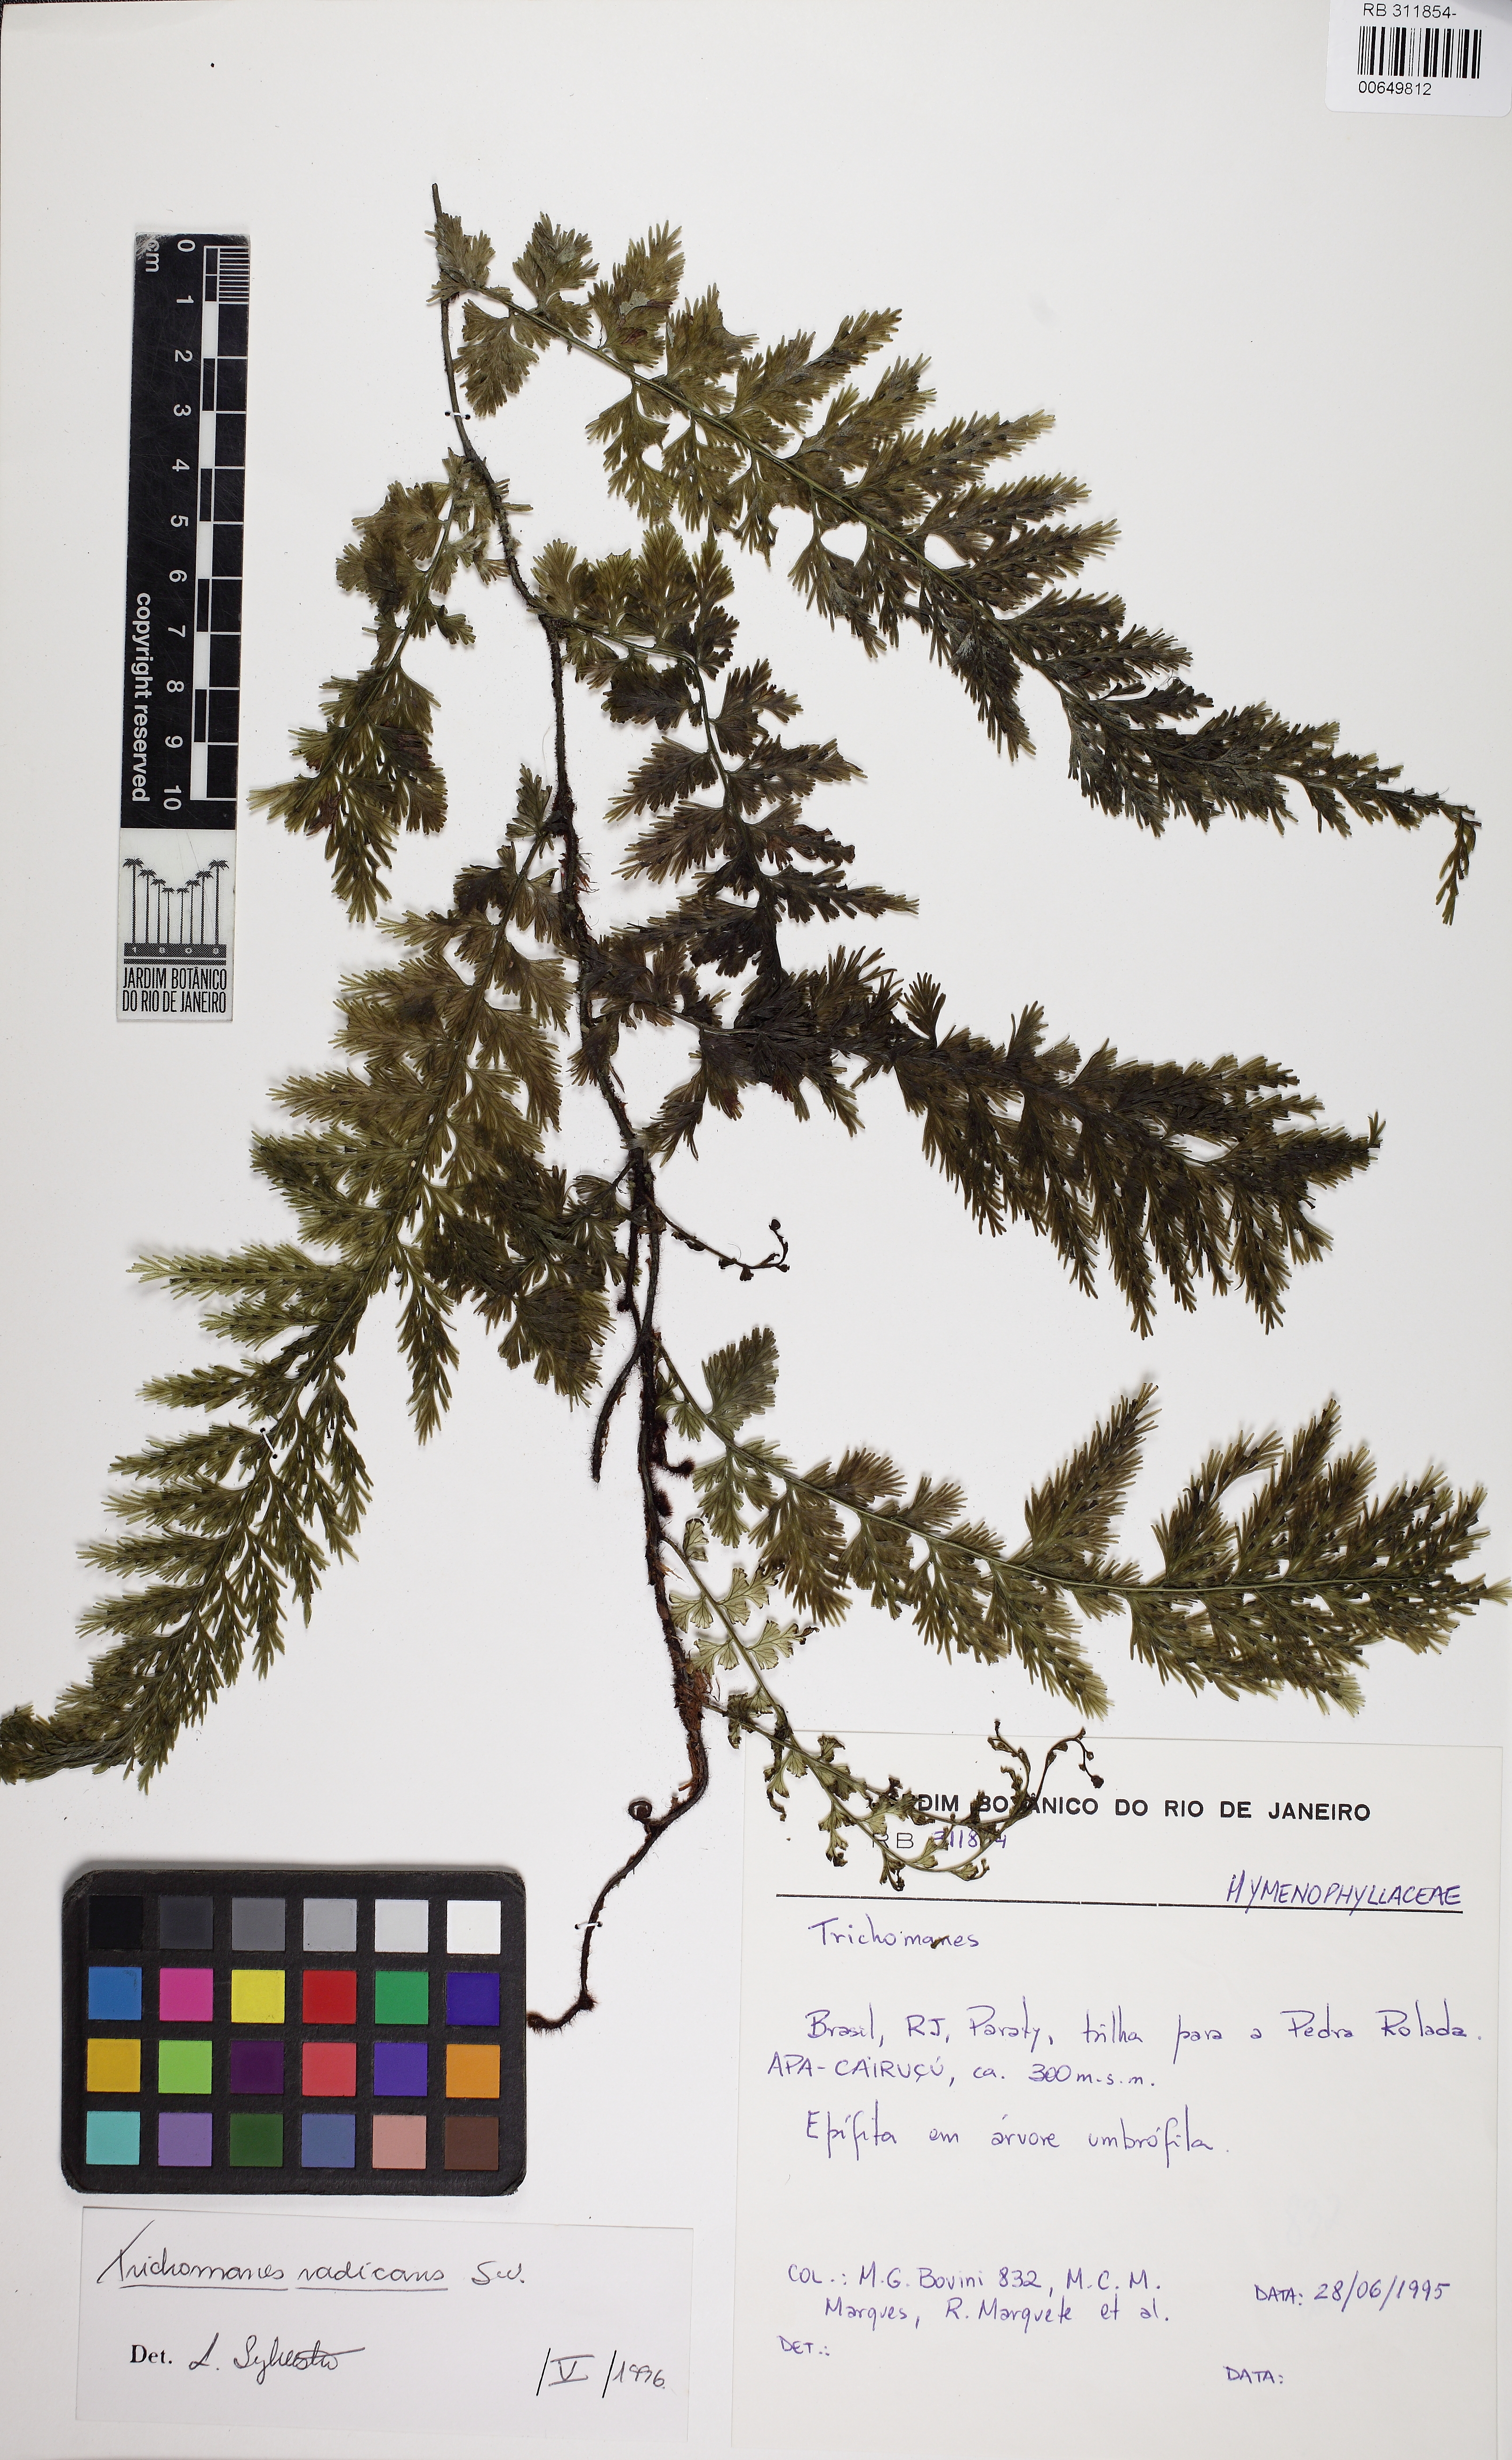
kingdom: Plantae
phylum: Tracheophyta
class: Polypodiopsida
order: Hymenophyllales
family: Hymenophyllaceae
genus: Vandenboschia
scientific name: Vandenboschia radicans
